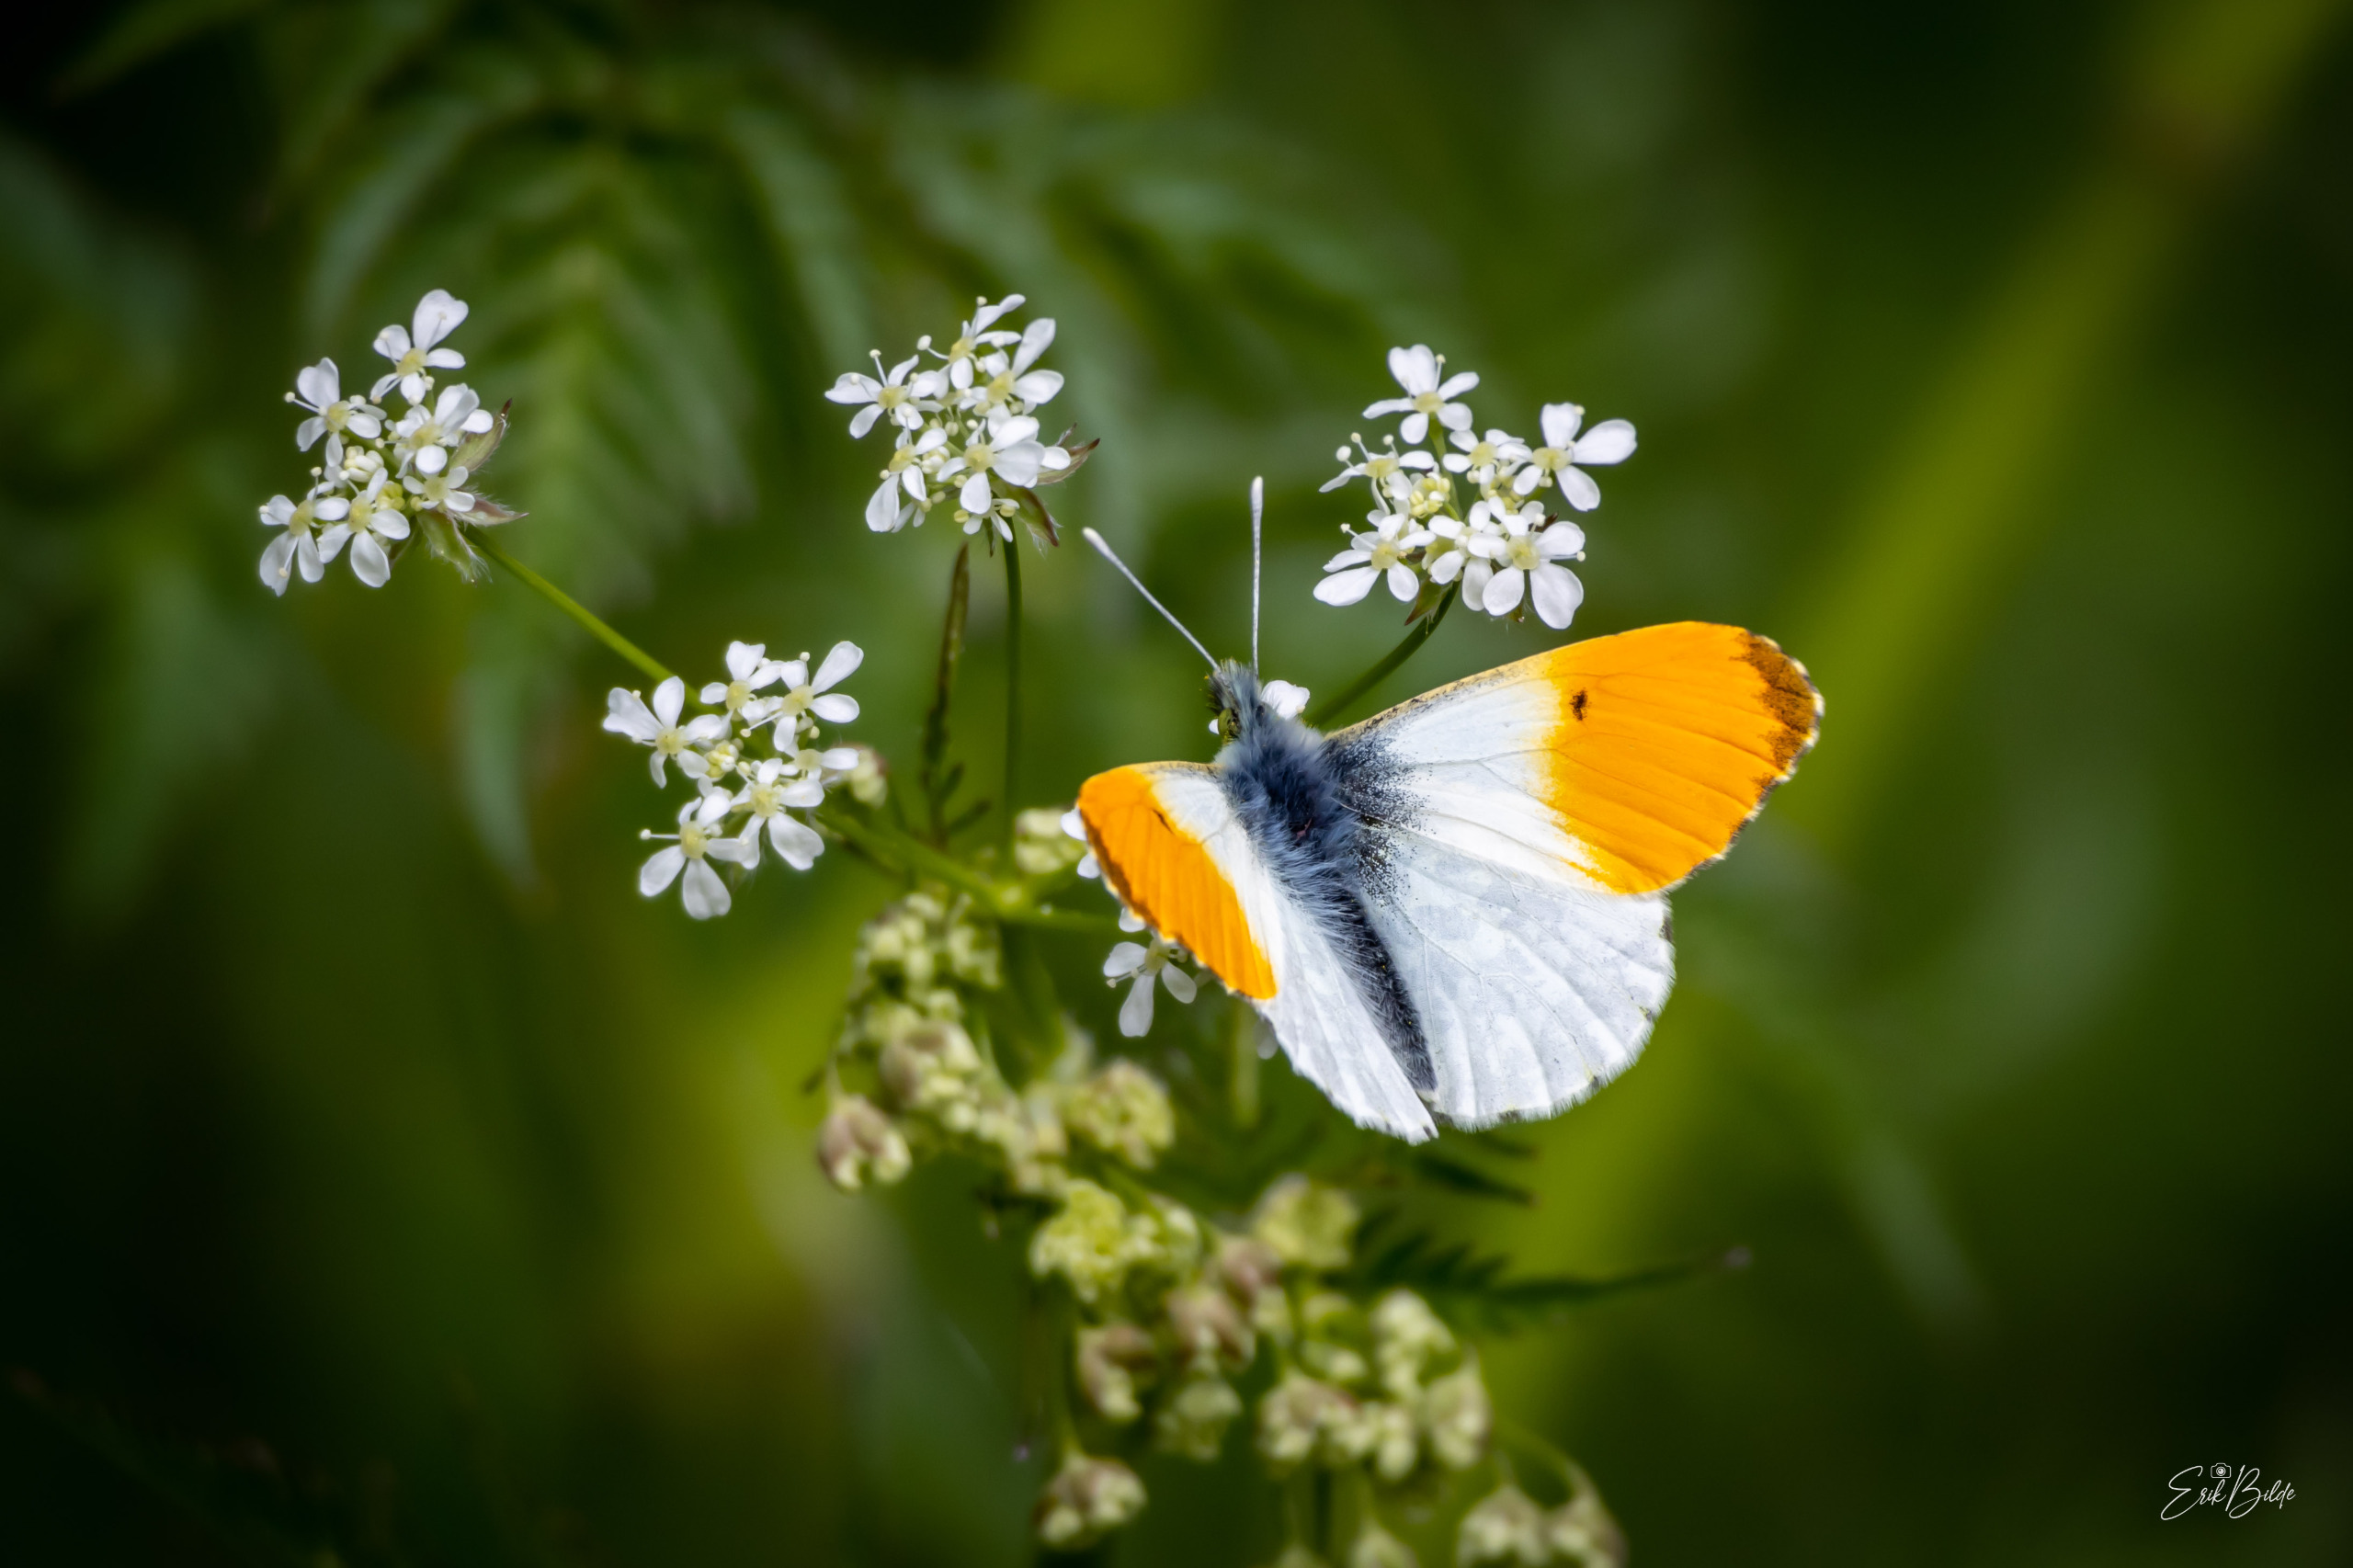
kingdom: Animalia
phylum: Arthropoda
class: Insecta
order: Lepidoptera
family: Pieridae
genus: Anthocharis
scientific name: Anthocharis cardamines
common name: Aurora
